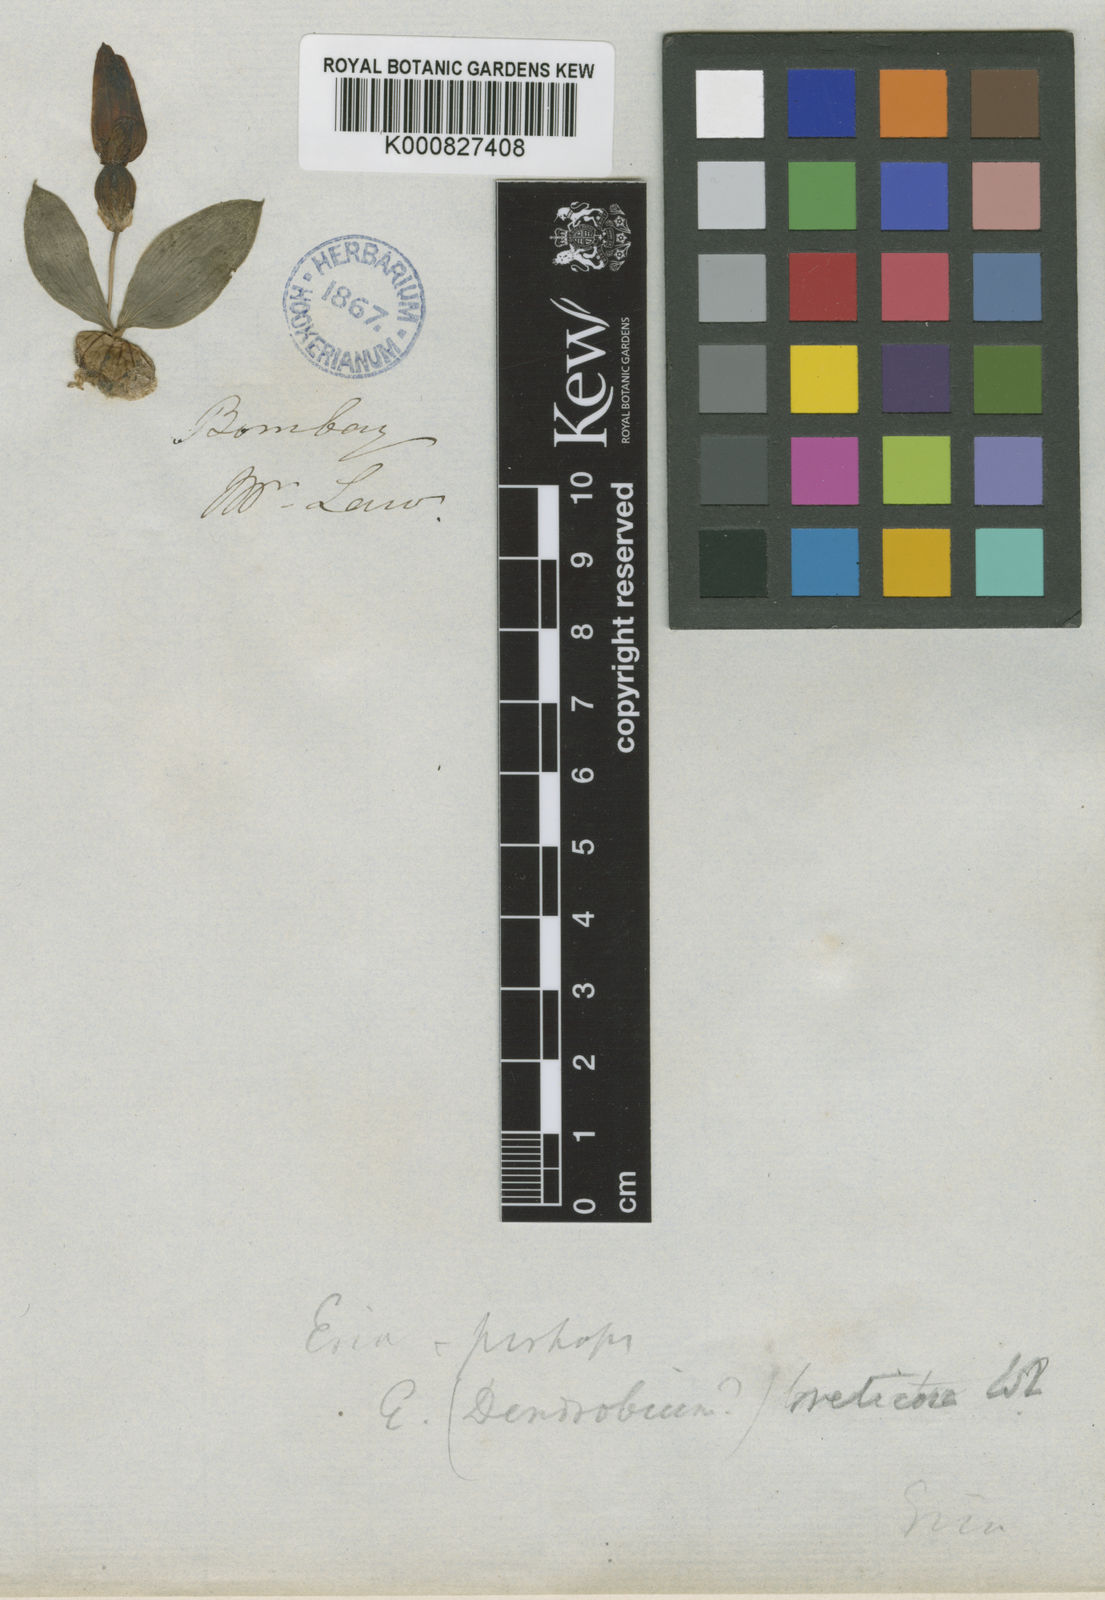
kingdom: Plantae
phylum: Tracheophyta
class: Liliopsida
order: Asparagales
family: Orchidaceae
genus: Porpax
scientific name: Porpax braccata
